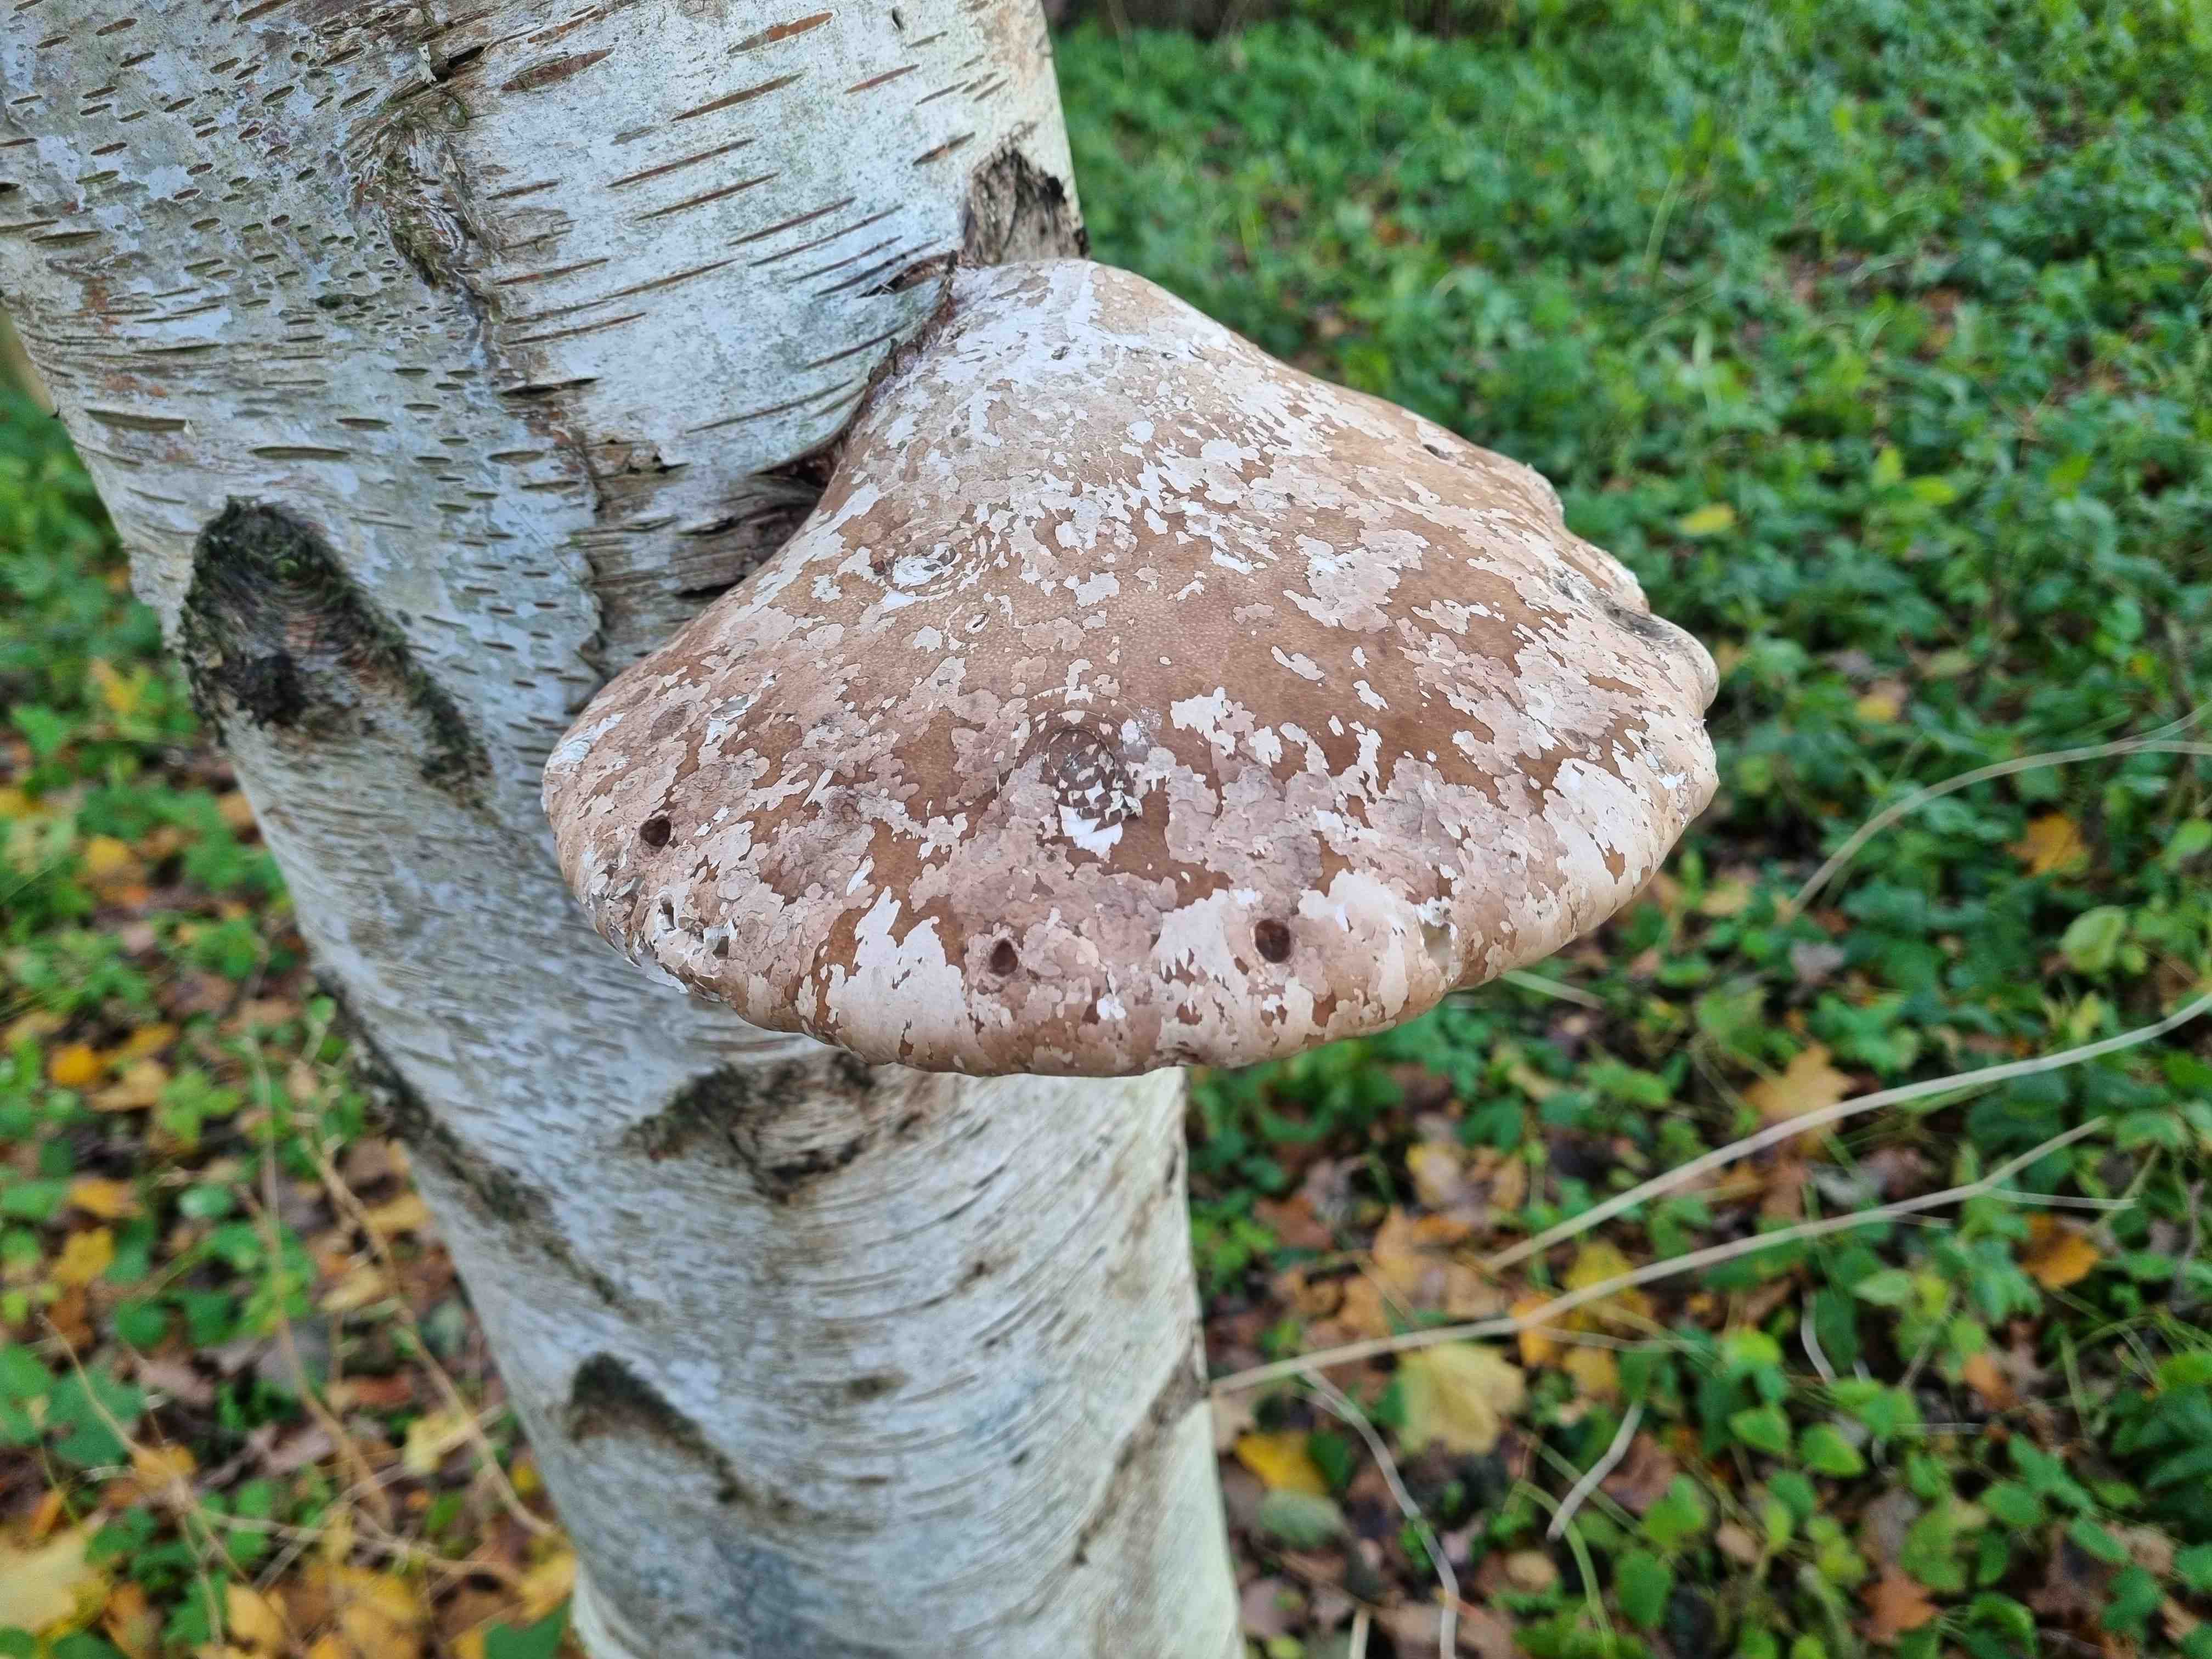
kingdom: Fungi
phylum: Basidiomycota
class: Agaricomycetes
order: Polyporales
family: Fomitopsidaceae
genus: Fomitopsis
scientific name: Fomitopsis betulina
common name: birkeporesvamp
